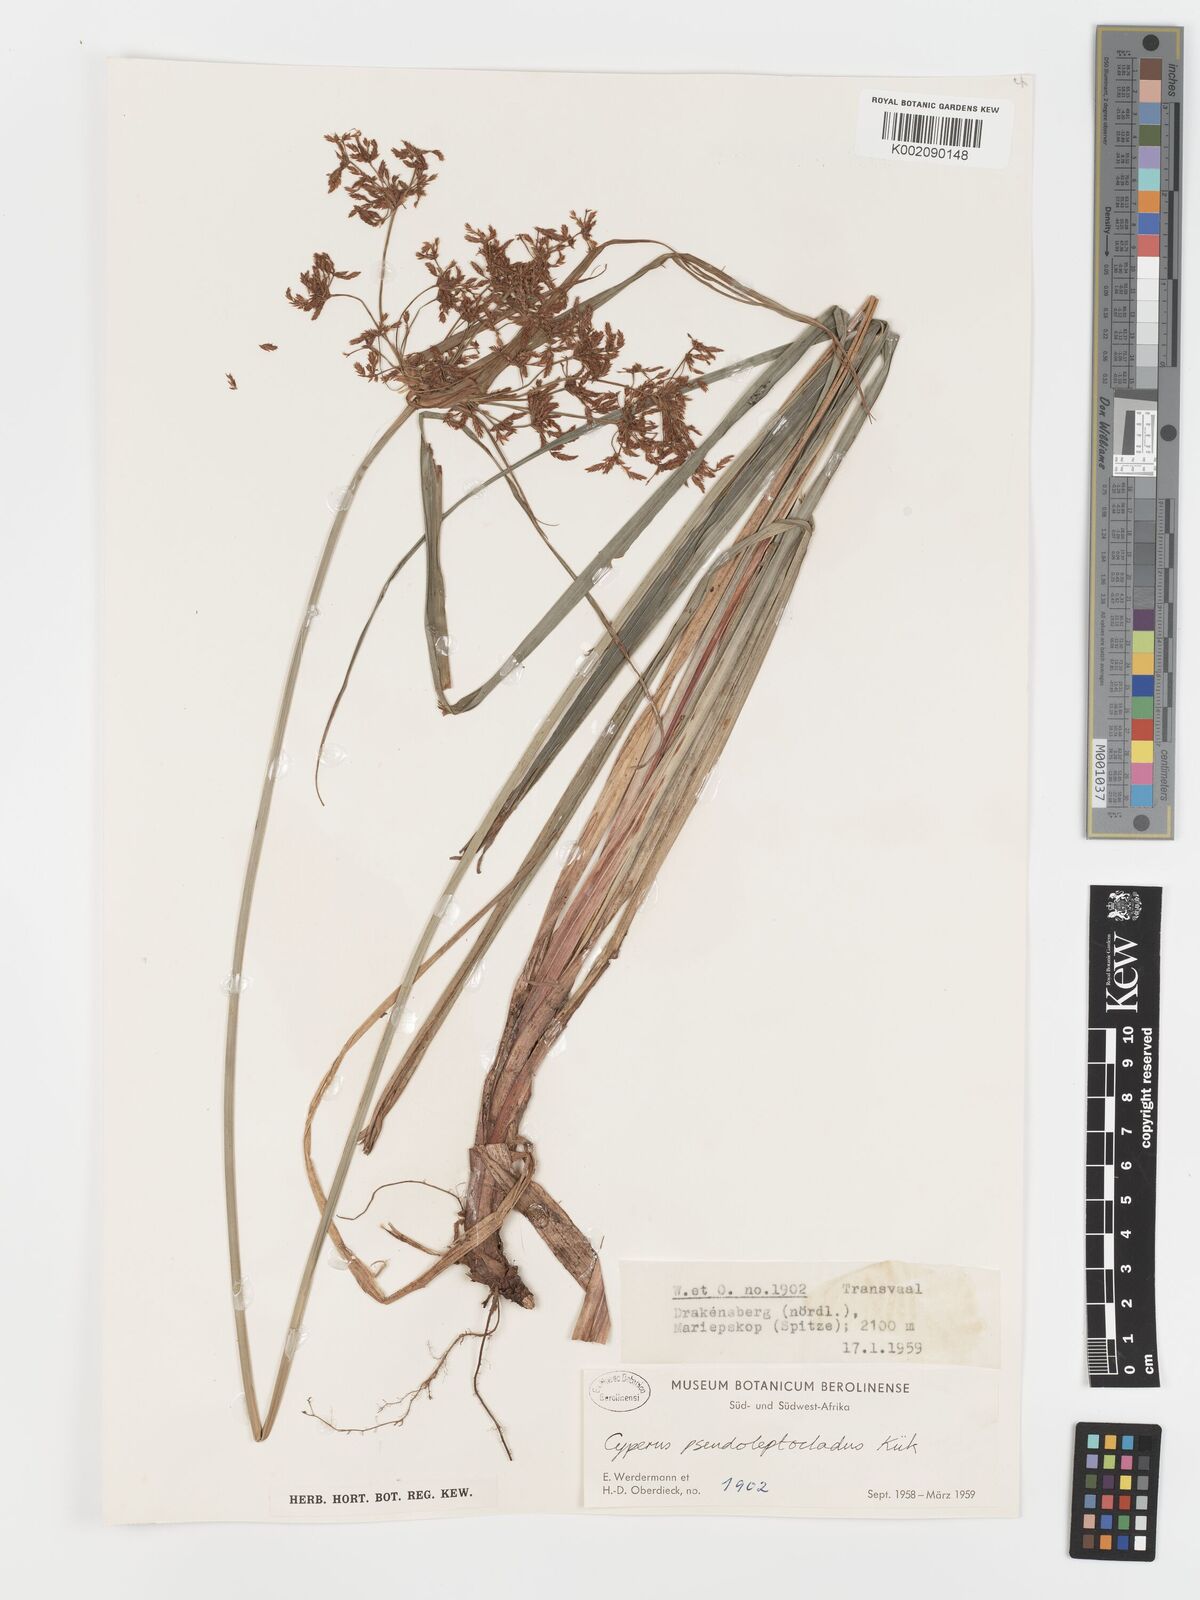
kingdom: Plantae
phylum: Tracheophyta
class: Liliopsida
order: Poales
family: Cyperaceae
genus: Cyperus
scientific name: Cyperus glaucophyllus
